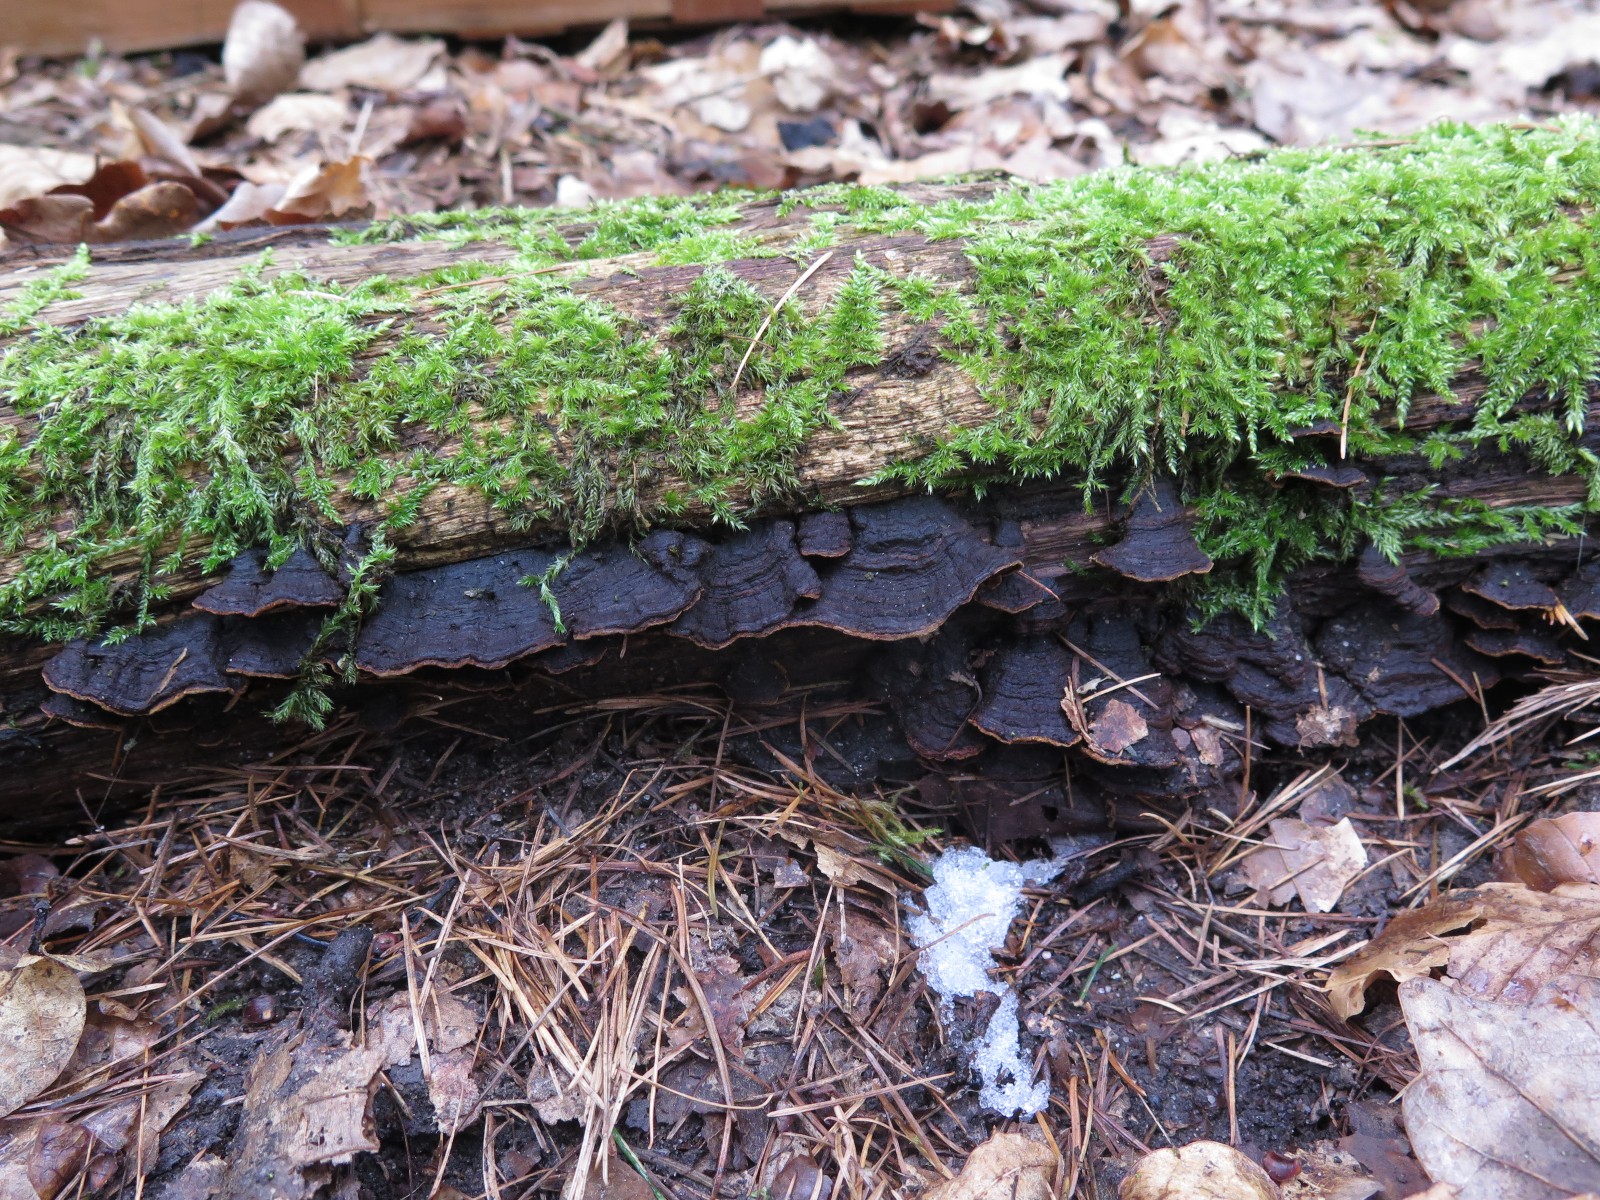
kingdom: Fungi
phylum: Basidiomycota
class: Agaricomycetes
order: Hymenochaetales
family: Hymenochaetaceae
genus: Hymenochaete
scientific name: Hymenochaete rubiginosa
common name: stiv ruslædersvamp
